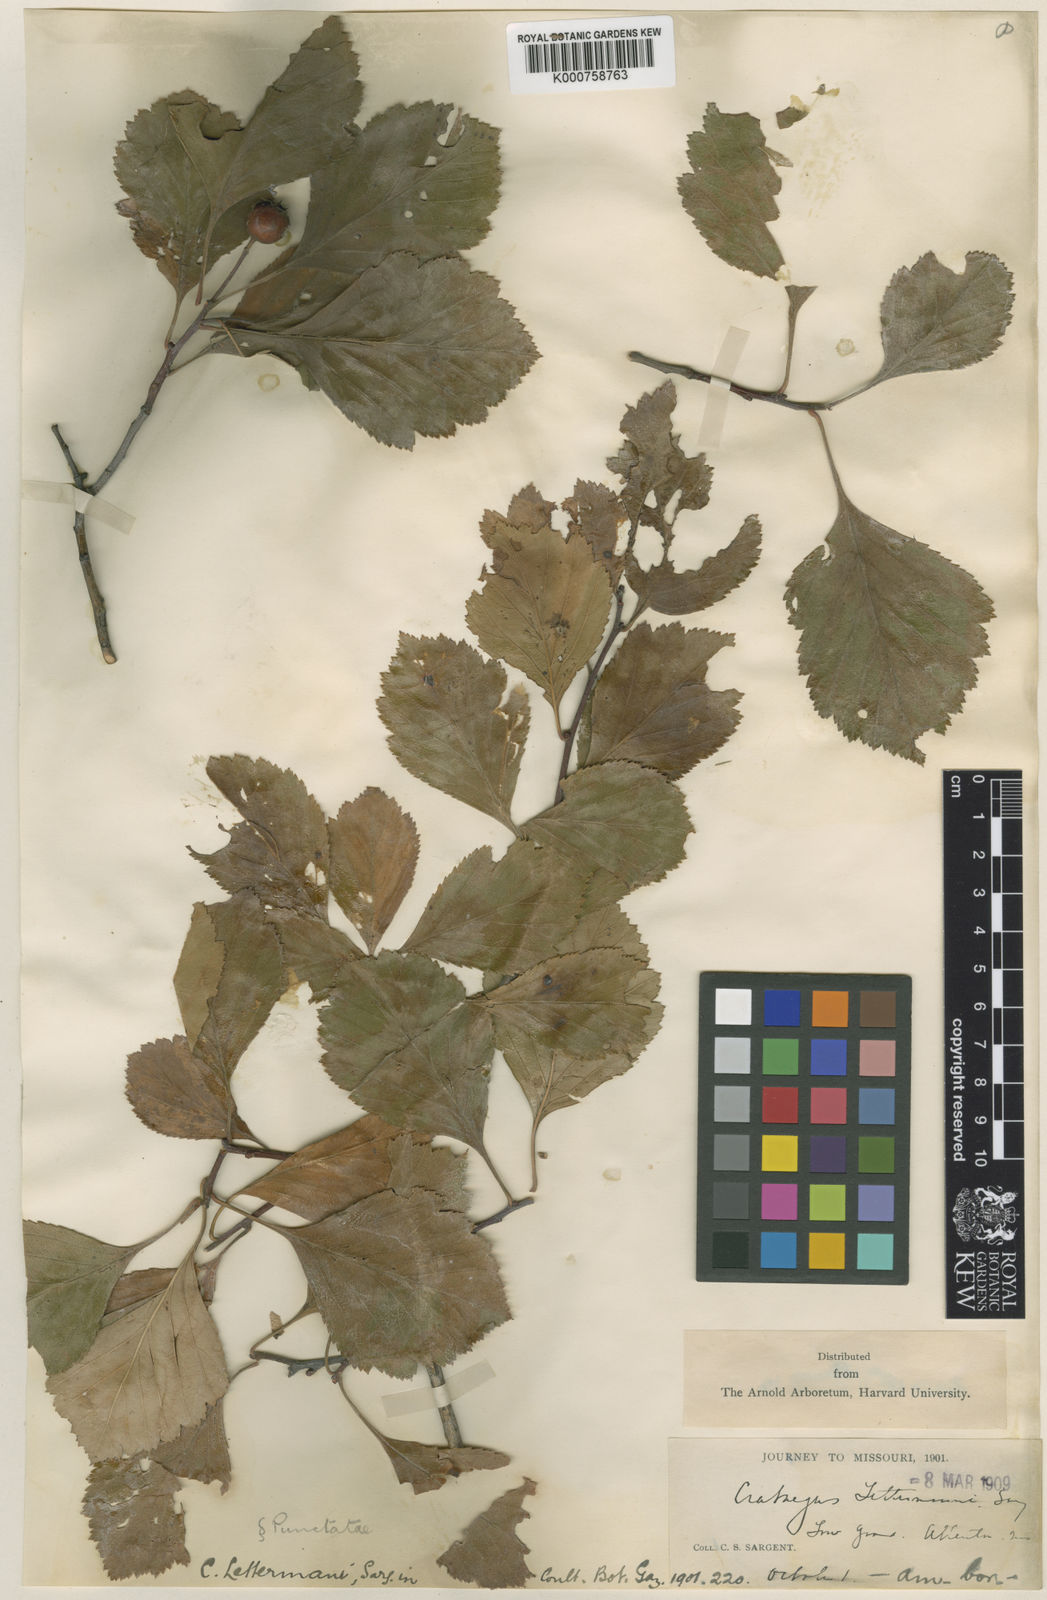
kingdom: Plantae
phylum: Tracheophyta
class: Magnoliopsida
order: Rosales
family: Rosaceae
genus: Crataegus
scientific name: Crataegus collina
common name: Hillside hawthorn
